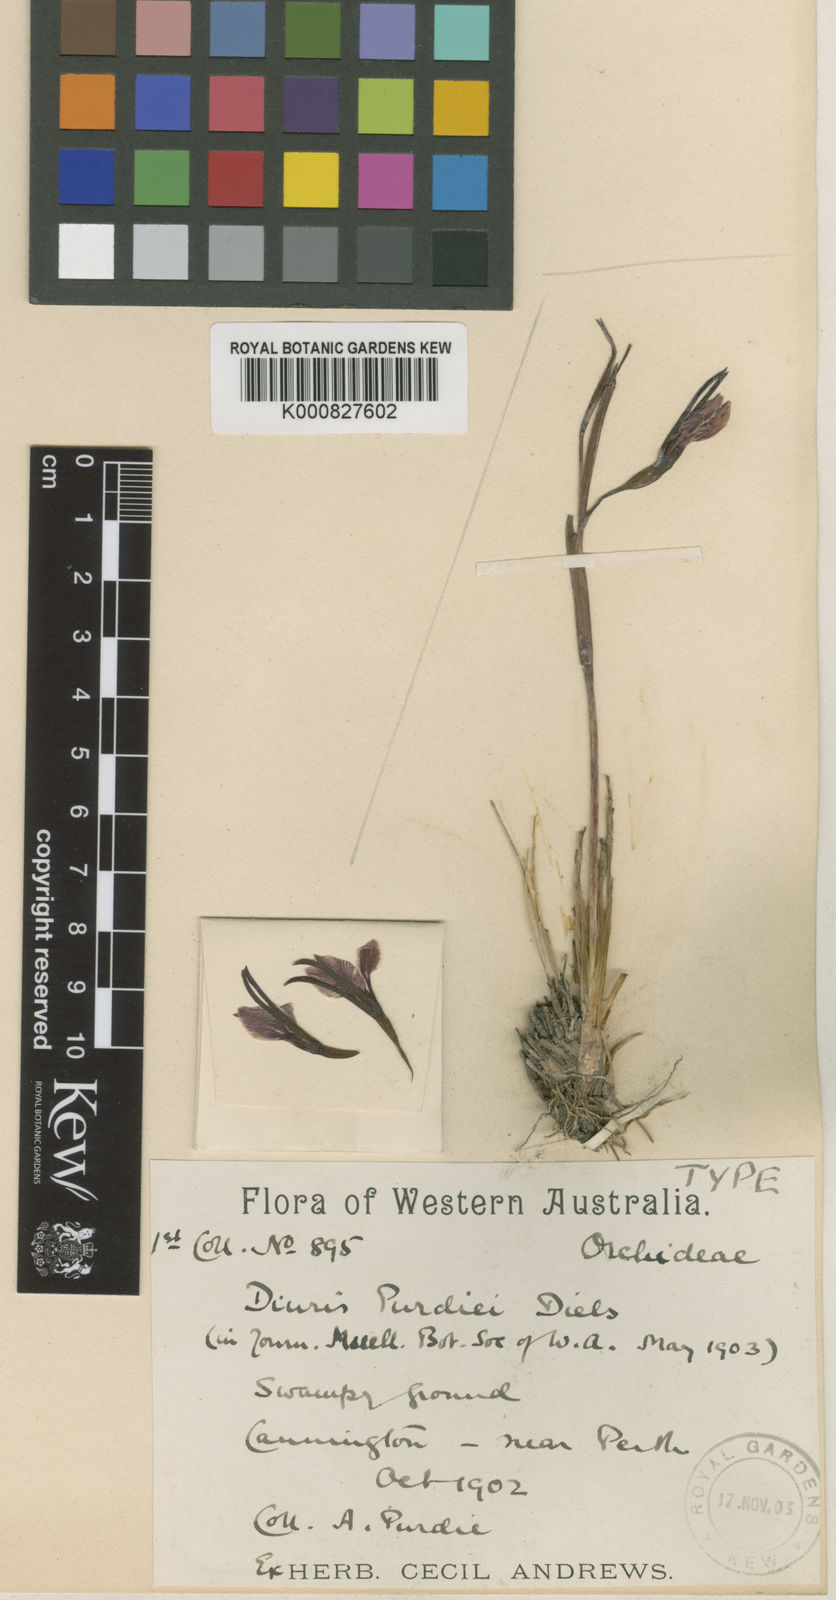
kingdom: Plantae
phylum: Tracheophyta
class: Liliopsida
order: Asparagales
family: Orchidaceae
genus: Diuris
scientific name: Diuris purdiei
